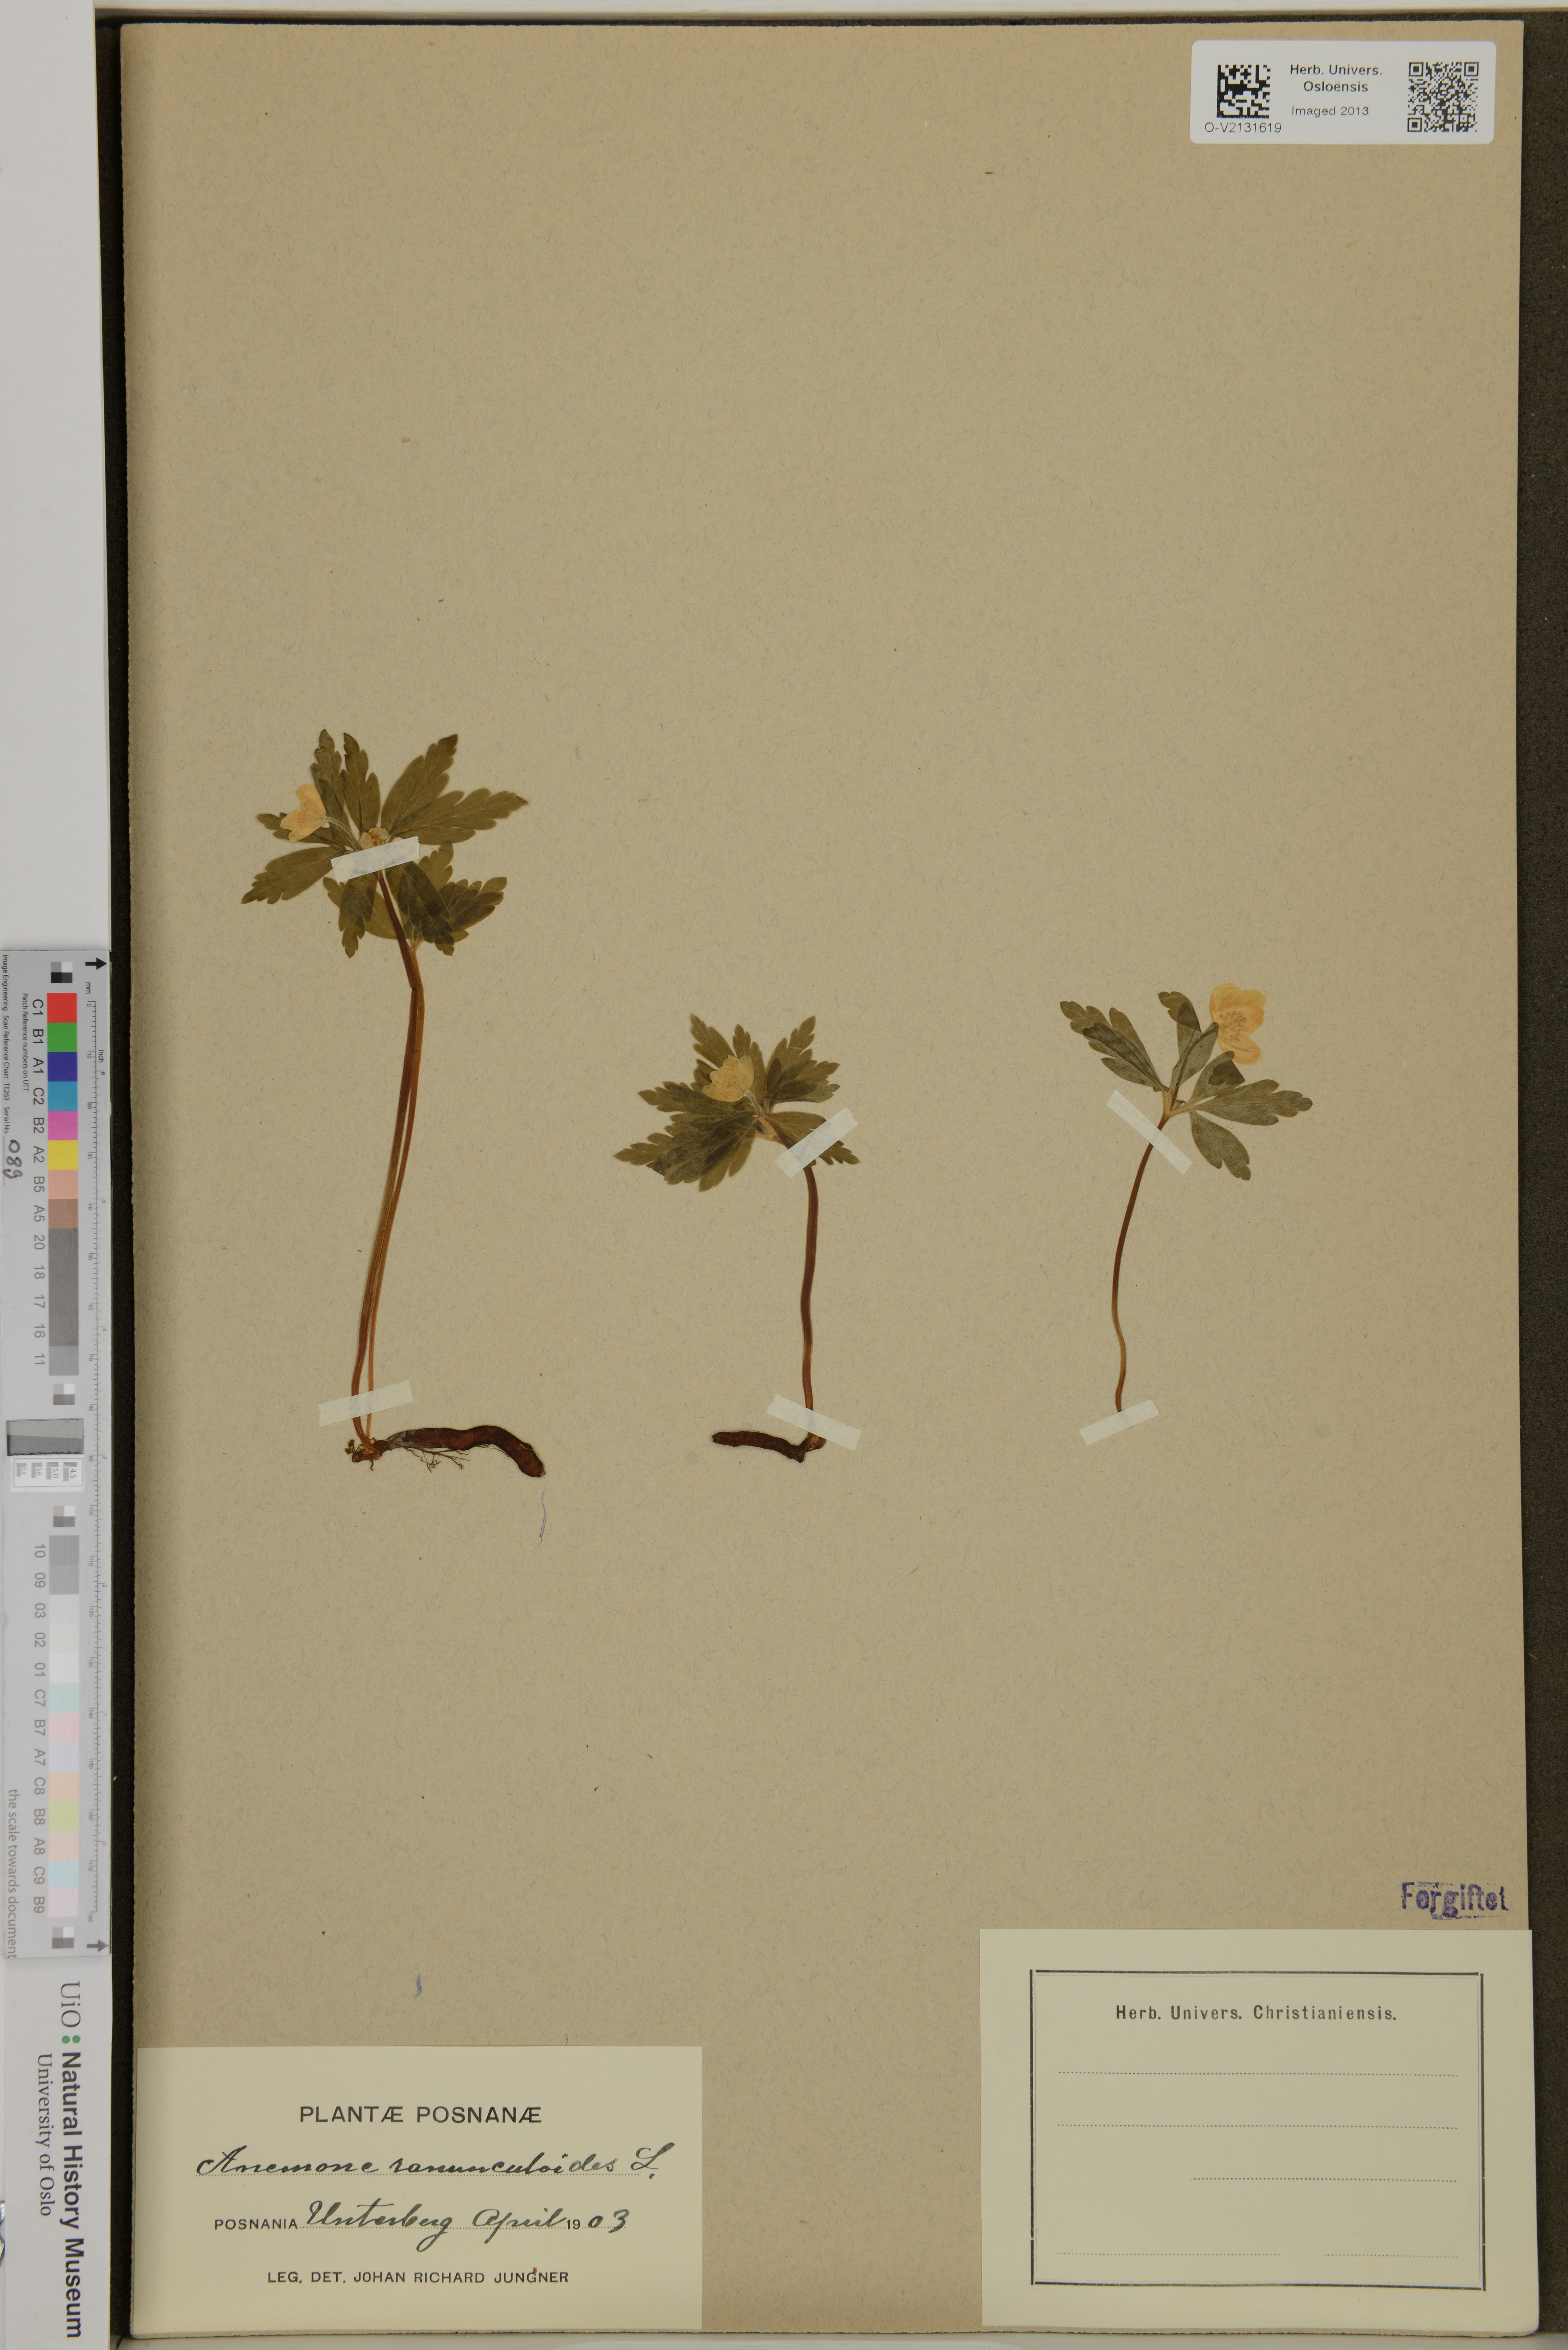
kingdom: Plantae
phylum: Tracheophyta
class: Magnoliopsida
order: Ranunculales
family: Ranunculaceae
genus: Anemone
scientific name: Anemone ranunculoides
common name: Yellow anemone
